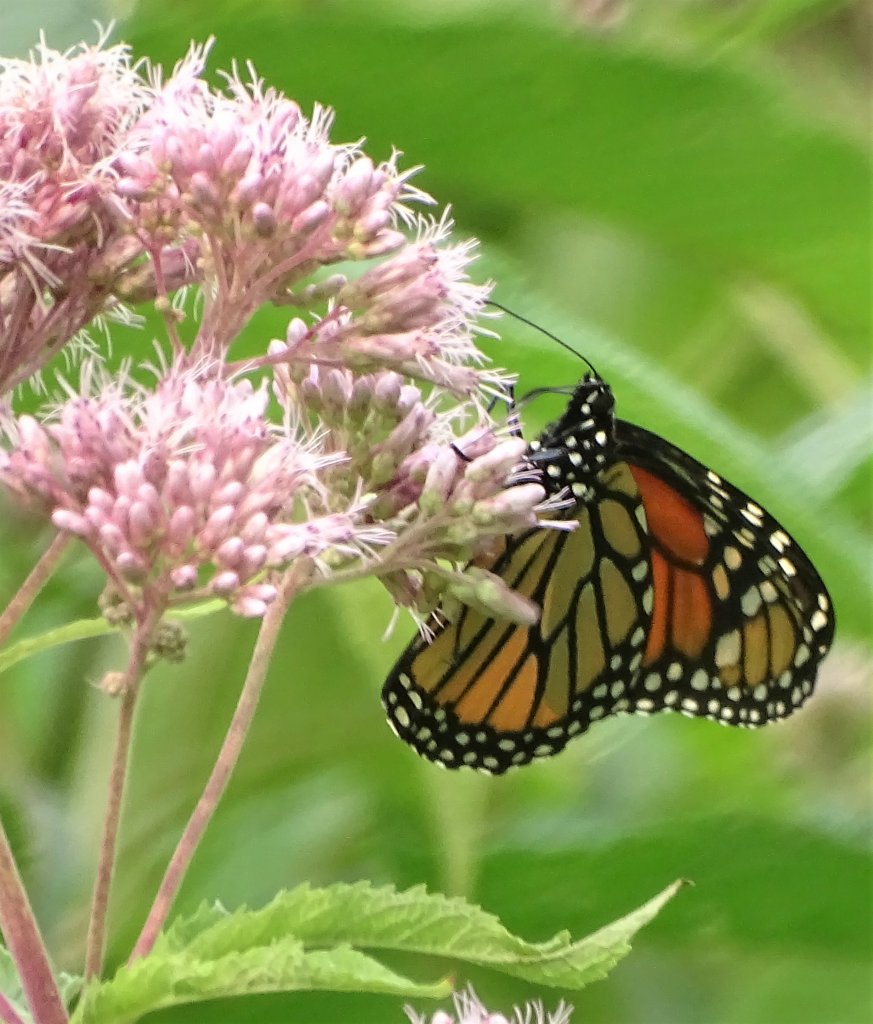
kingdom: Animalia
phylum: Arthropoda
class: Insecta
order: Lepidoptera
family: Nymphalidae
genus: Danaus
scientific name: Danaus plexippus
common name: Monarch
